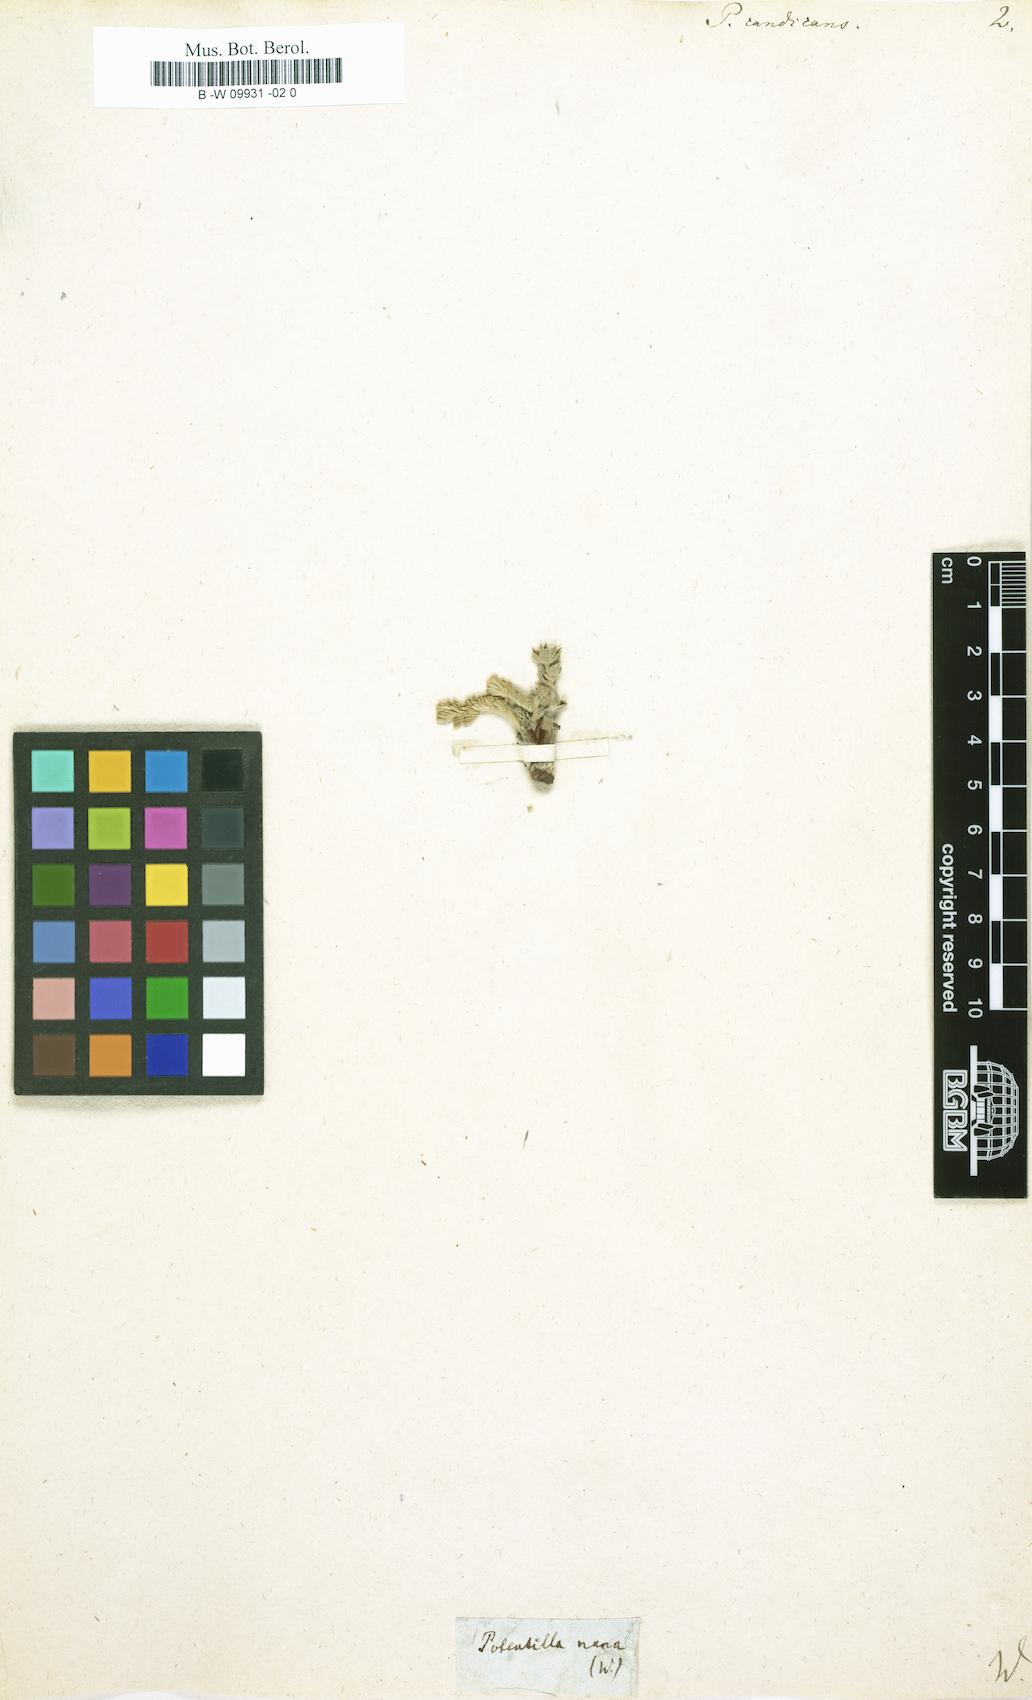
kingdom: Plantae
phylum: Tracheophyta
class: Magnoliopsida
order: Rosales
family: Rosaceae
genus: Potentilla
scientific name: Potentilla candicans
